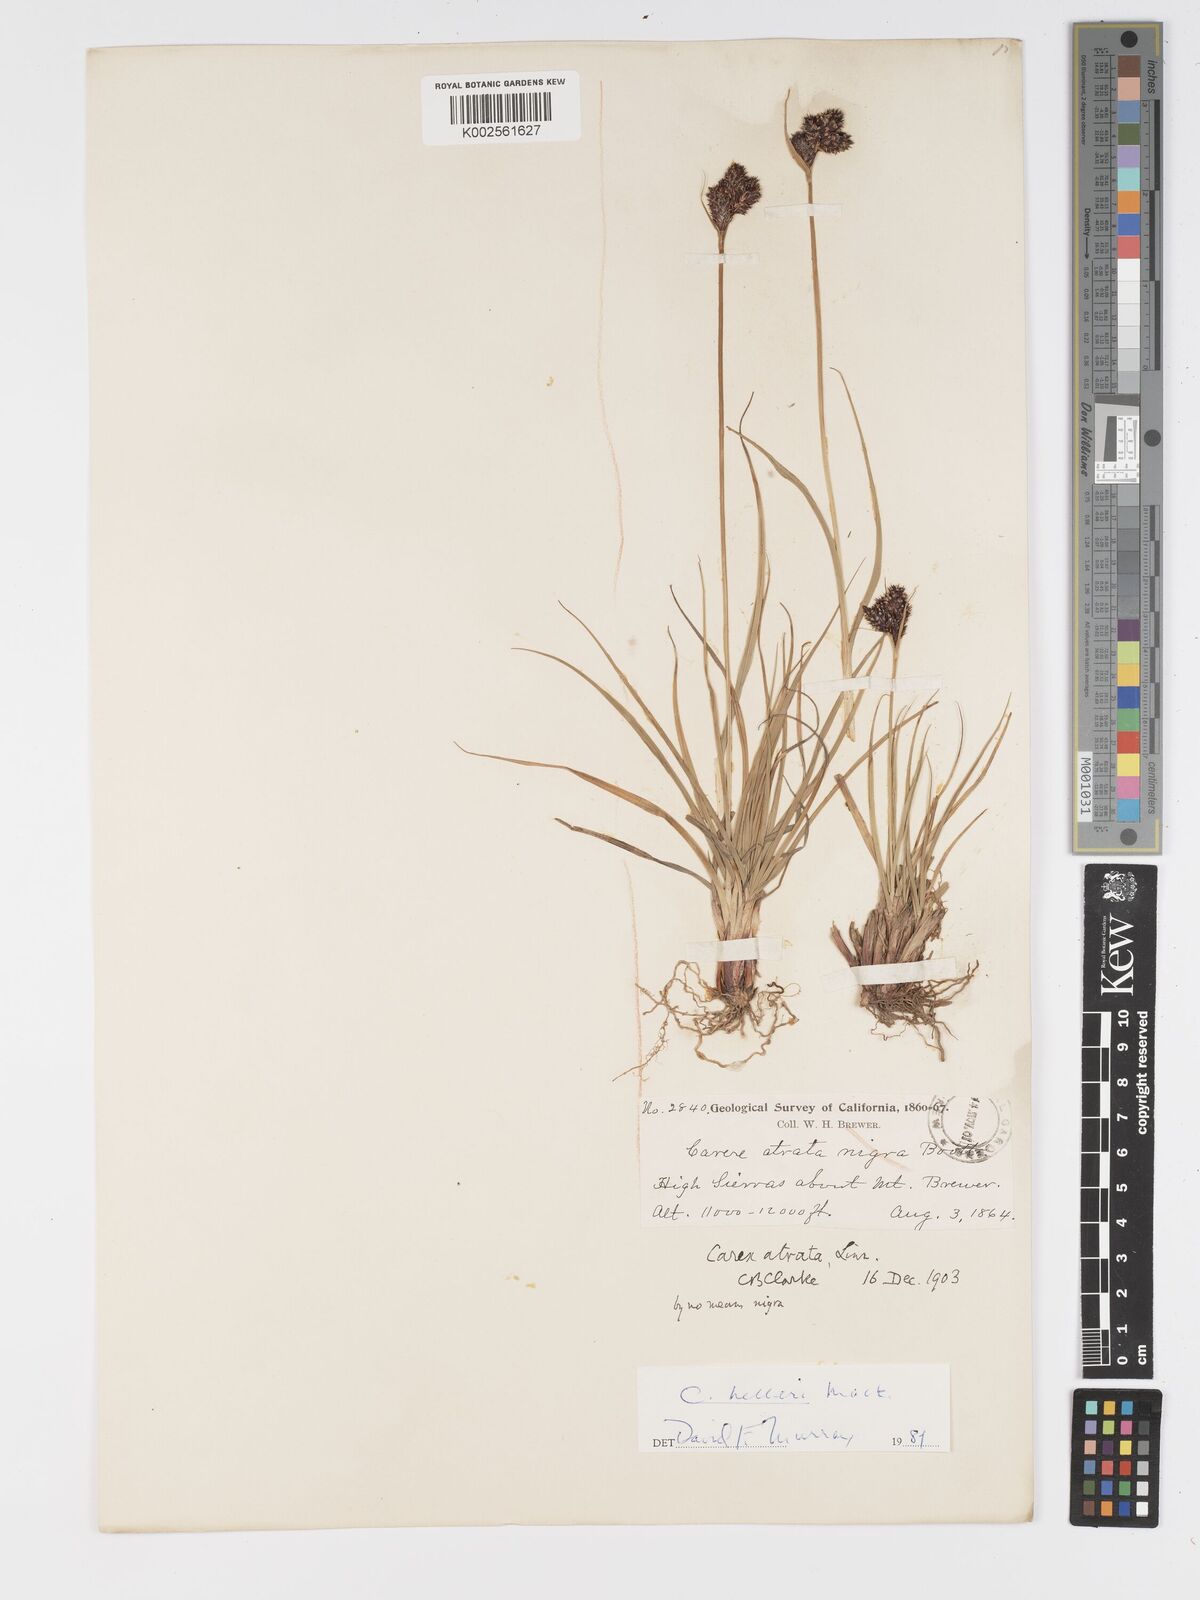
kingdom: Plantae
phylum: Tracheophyta
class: Liliopsida
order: Poales
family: Cyperaceae
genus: Carex
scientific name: Carex helleri
